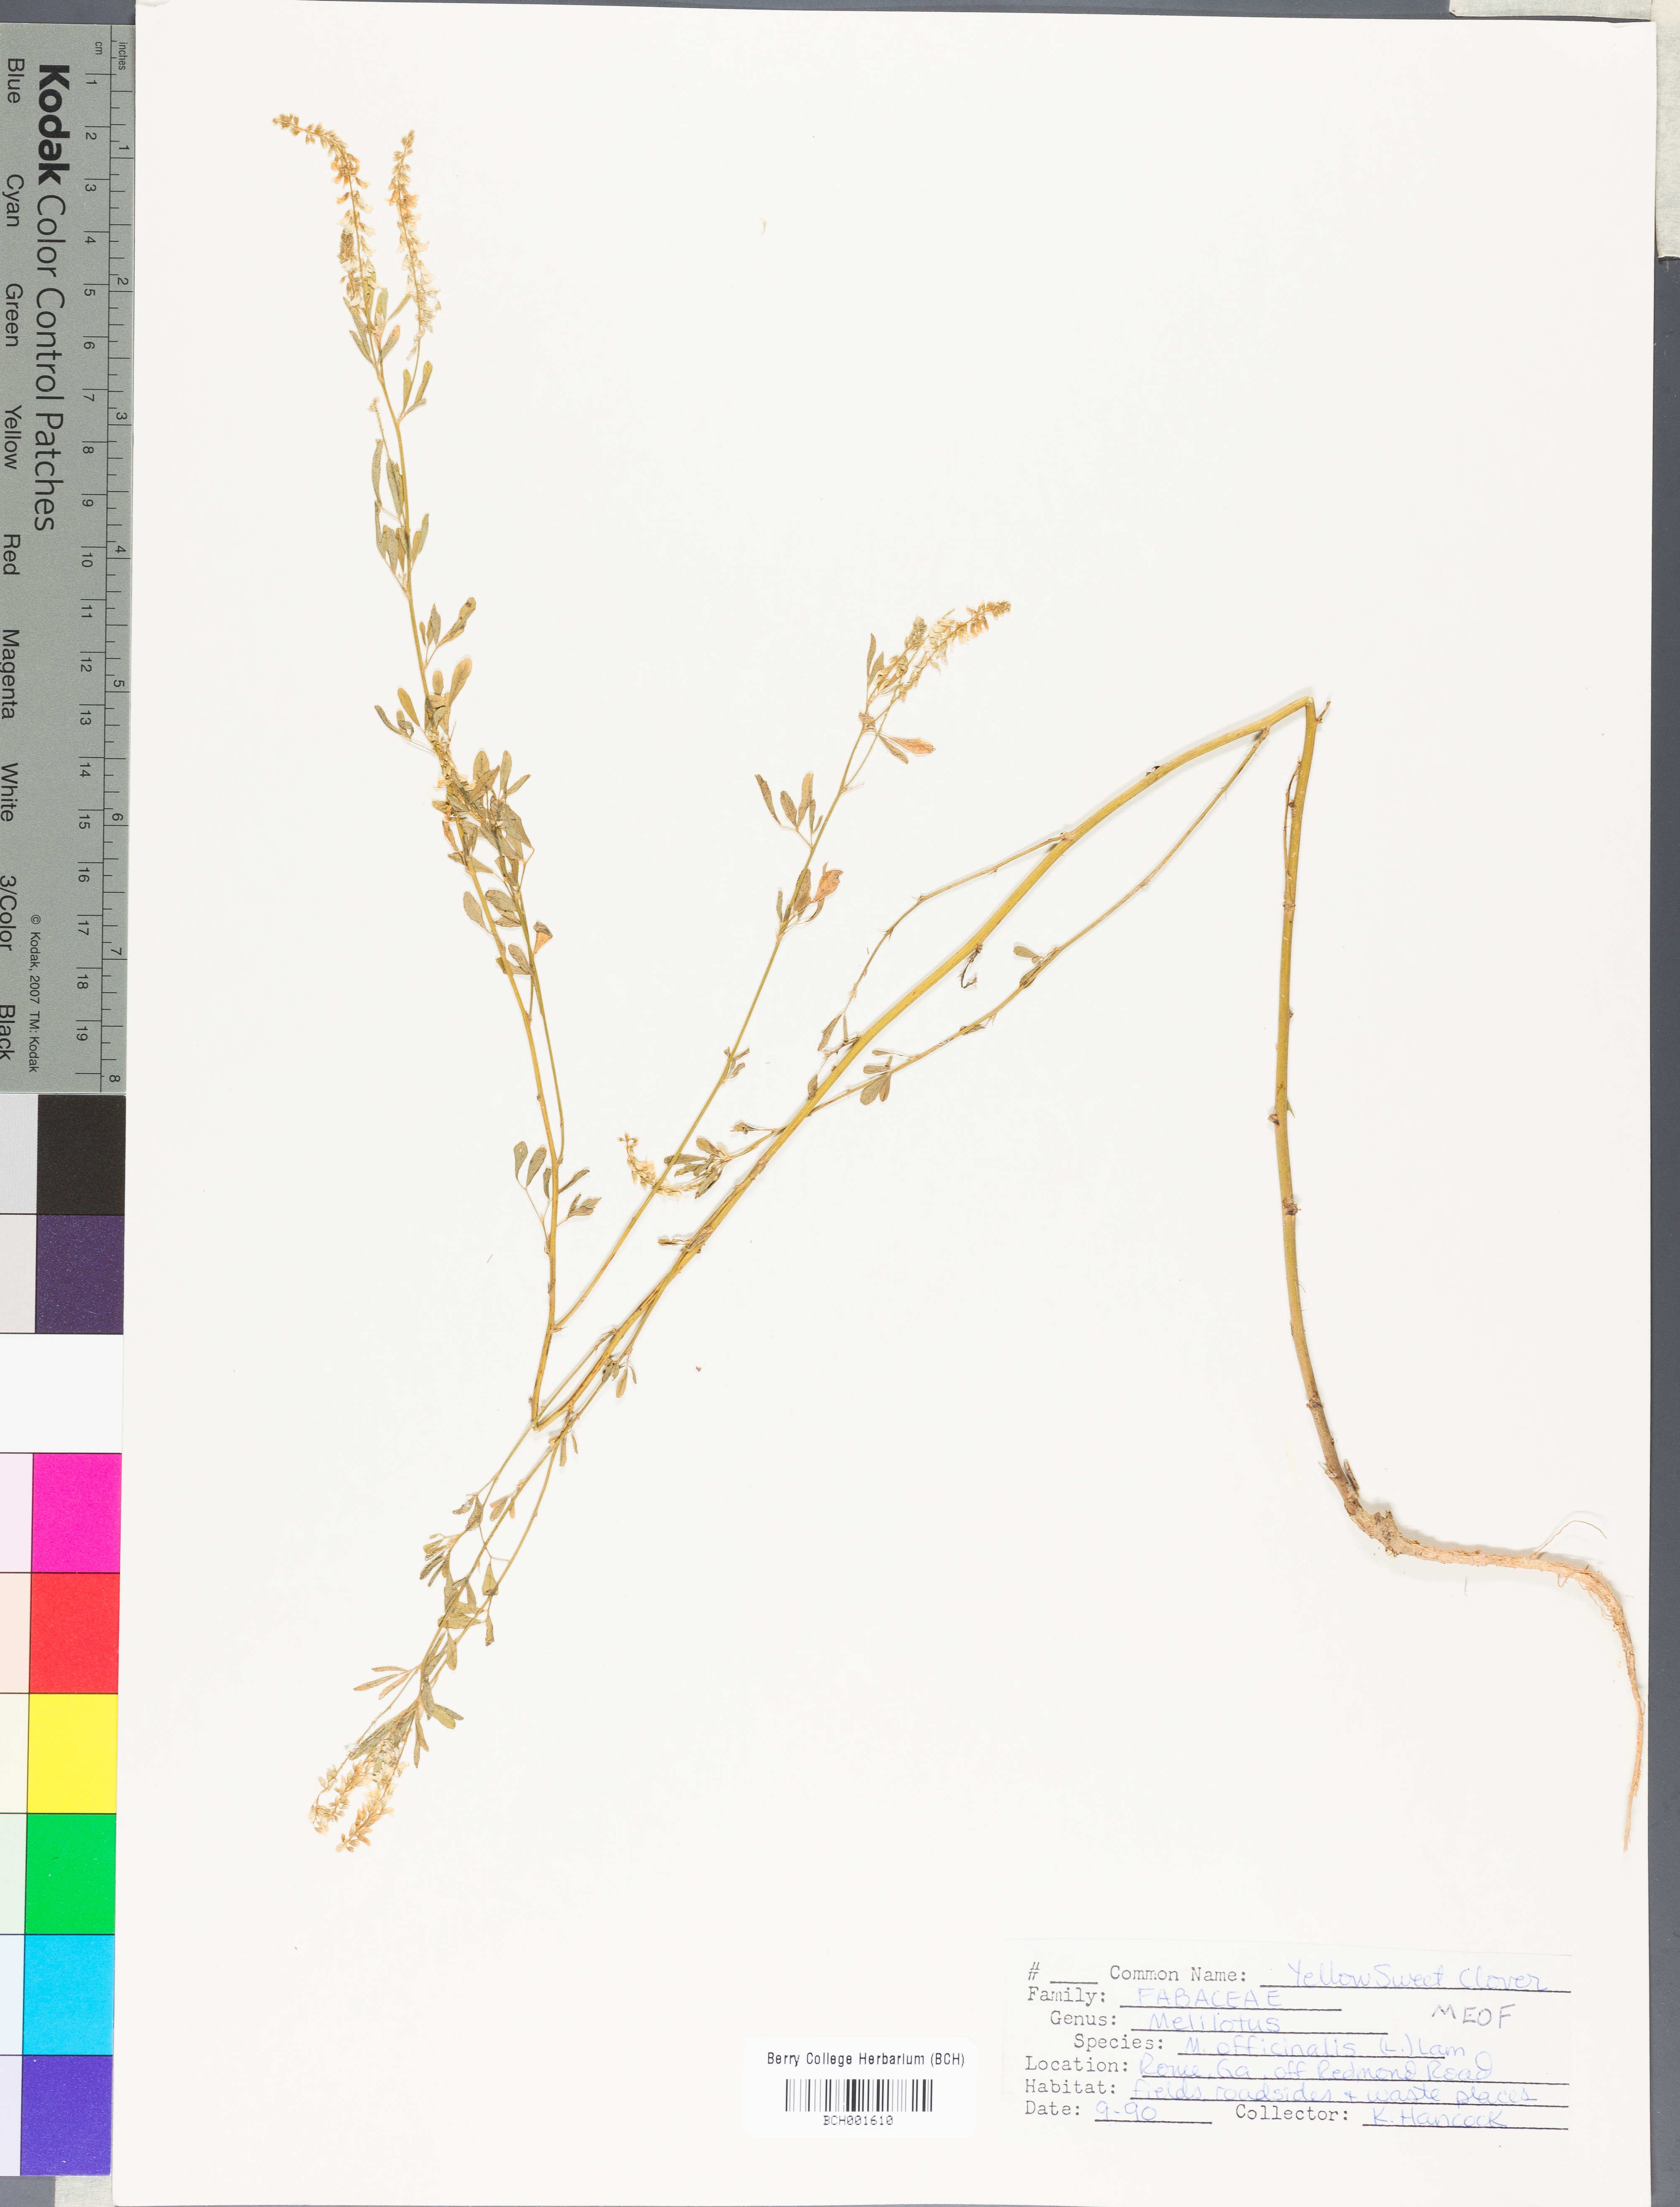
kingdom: Plantae
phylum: Tracheophyta
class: Magnoliopsida
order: Fabales
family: Fabaceae
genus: Melilotus
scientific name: Melilotus officinalis
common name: Sweetclover
